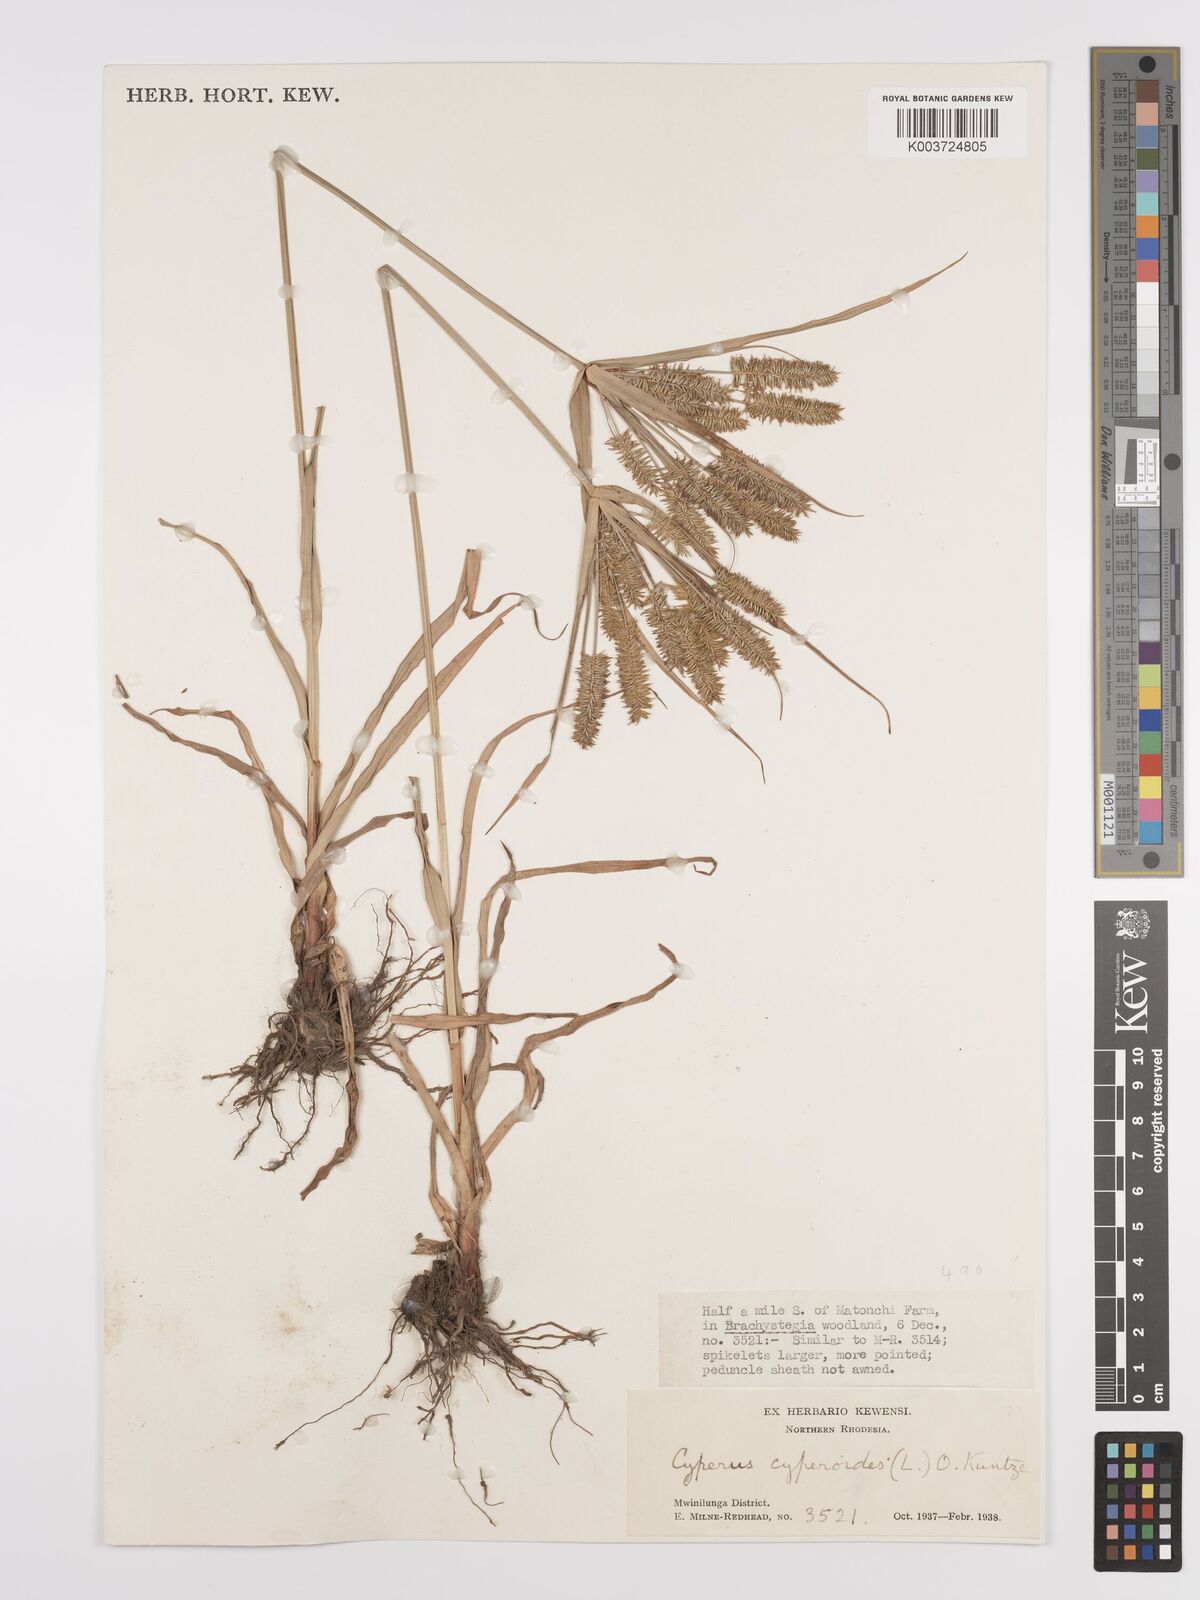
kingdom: Plantae
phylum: Tracheophyta
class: Liliopsida
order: Poales
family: Cyperaceae
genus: Cyperus
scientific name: Cyperus cyperoides
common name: Pacific island flat sedge
